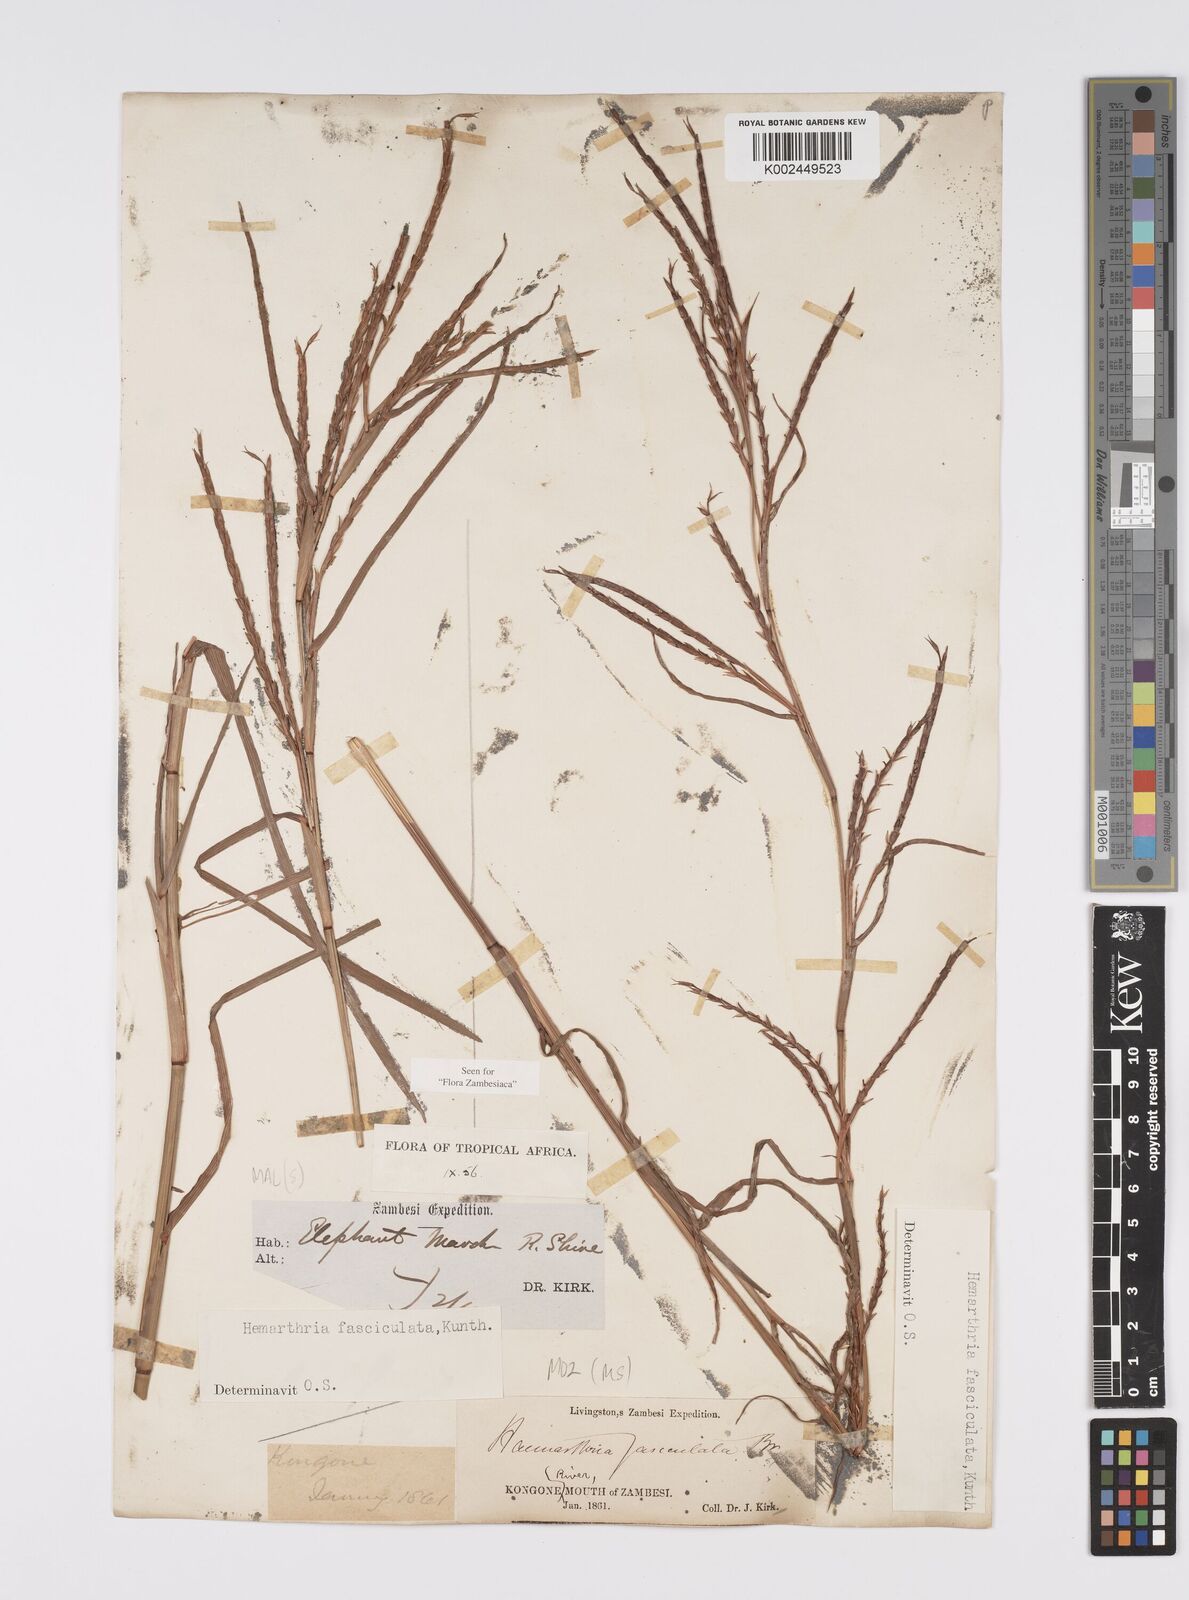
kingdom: Plantae
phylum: Tracheophyta
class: Liliopsida
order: Poales
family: Poaceae
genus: Hemarthria
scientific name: Hemarthria altissima
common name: African jointgrass
